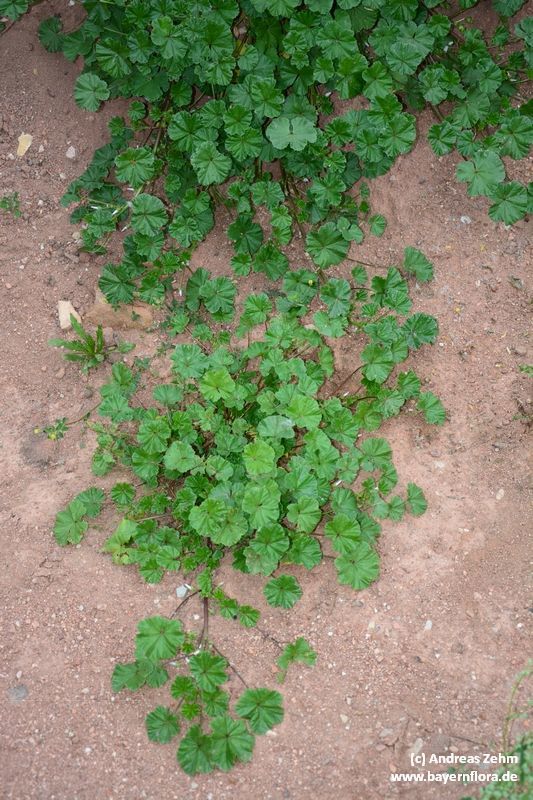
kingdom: Plantae
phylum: Tracheophyta
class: Magnoliopsida
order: Malvales
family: Malvaceae
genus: Malva
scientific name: Malva neglecta
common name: Common mallow
